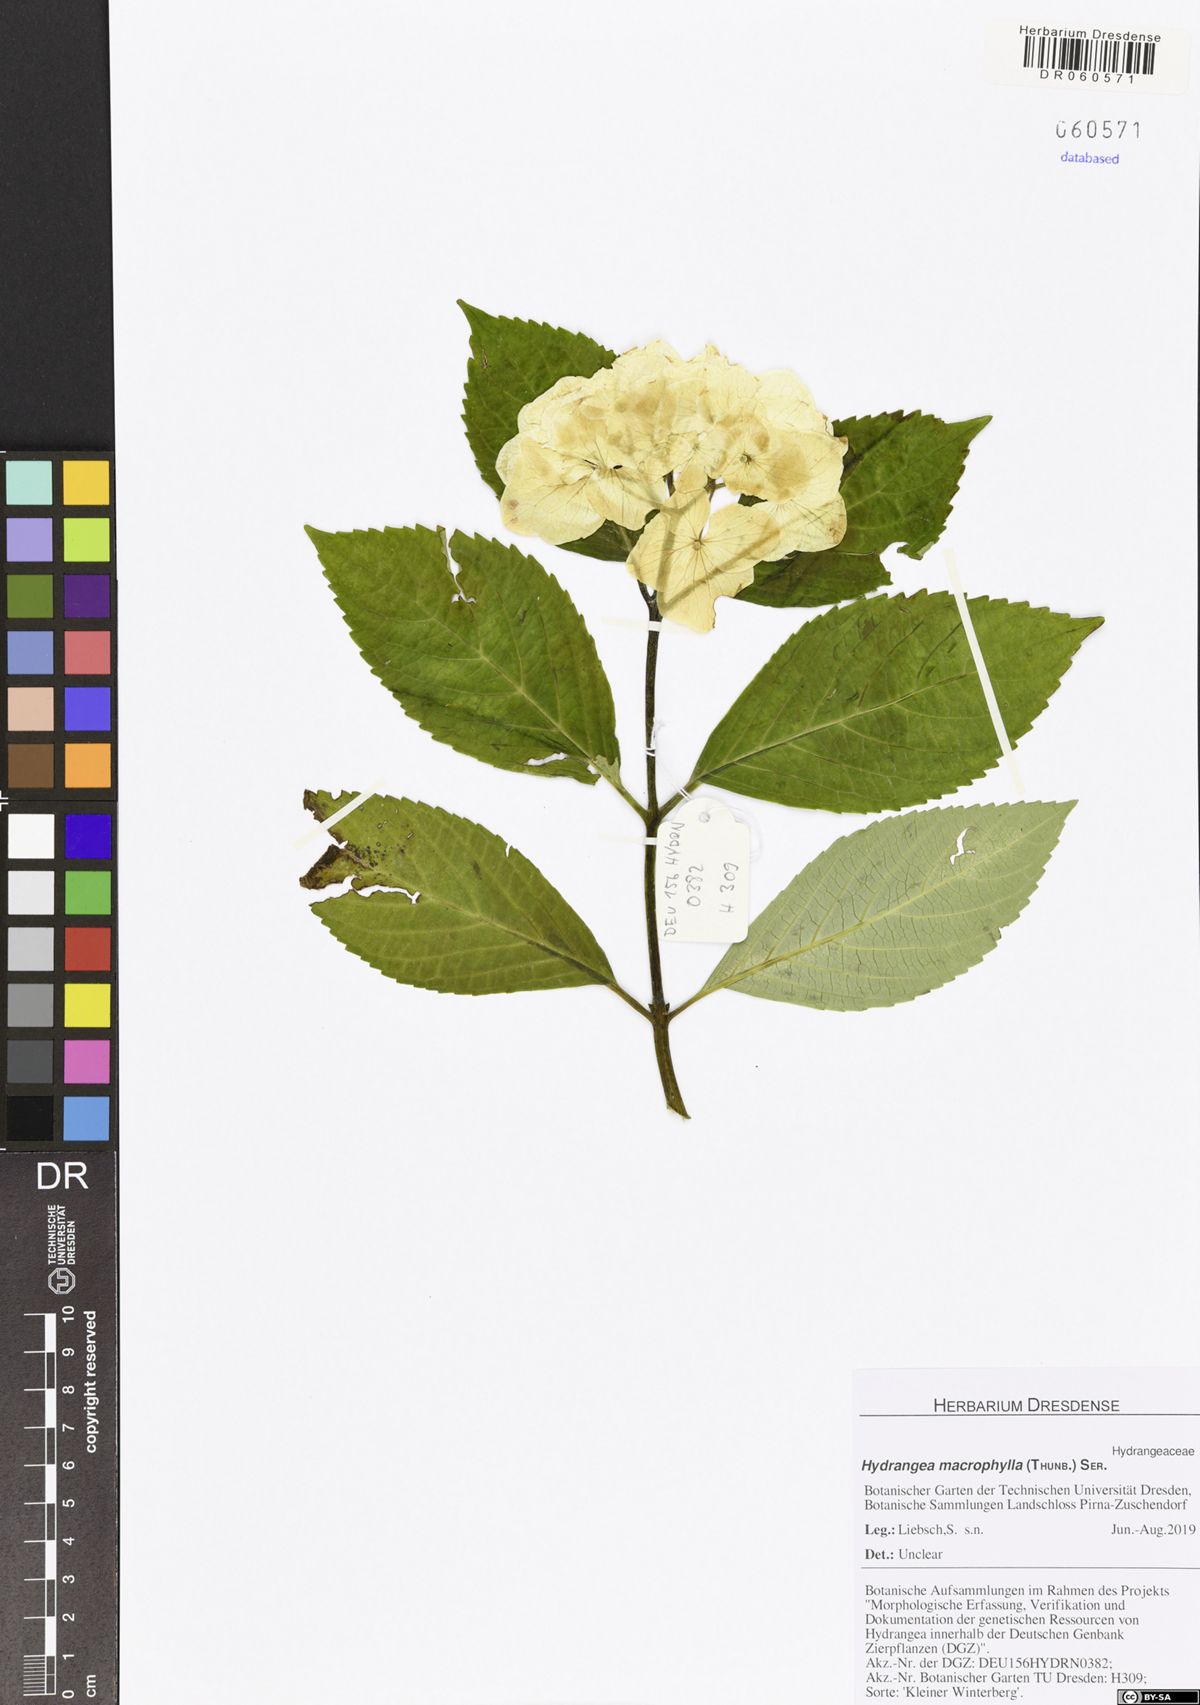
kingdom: Plantae
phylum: Tracheophyta
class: Magnoliopsida
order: Cornales
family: Hydrangeaceae
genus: Hydrangea
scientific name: Hydrangea macrophylla
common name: Hydrangea
